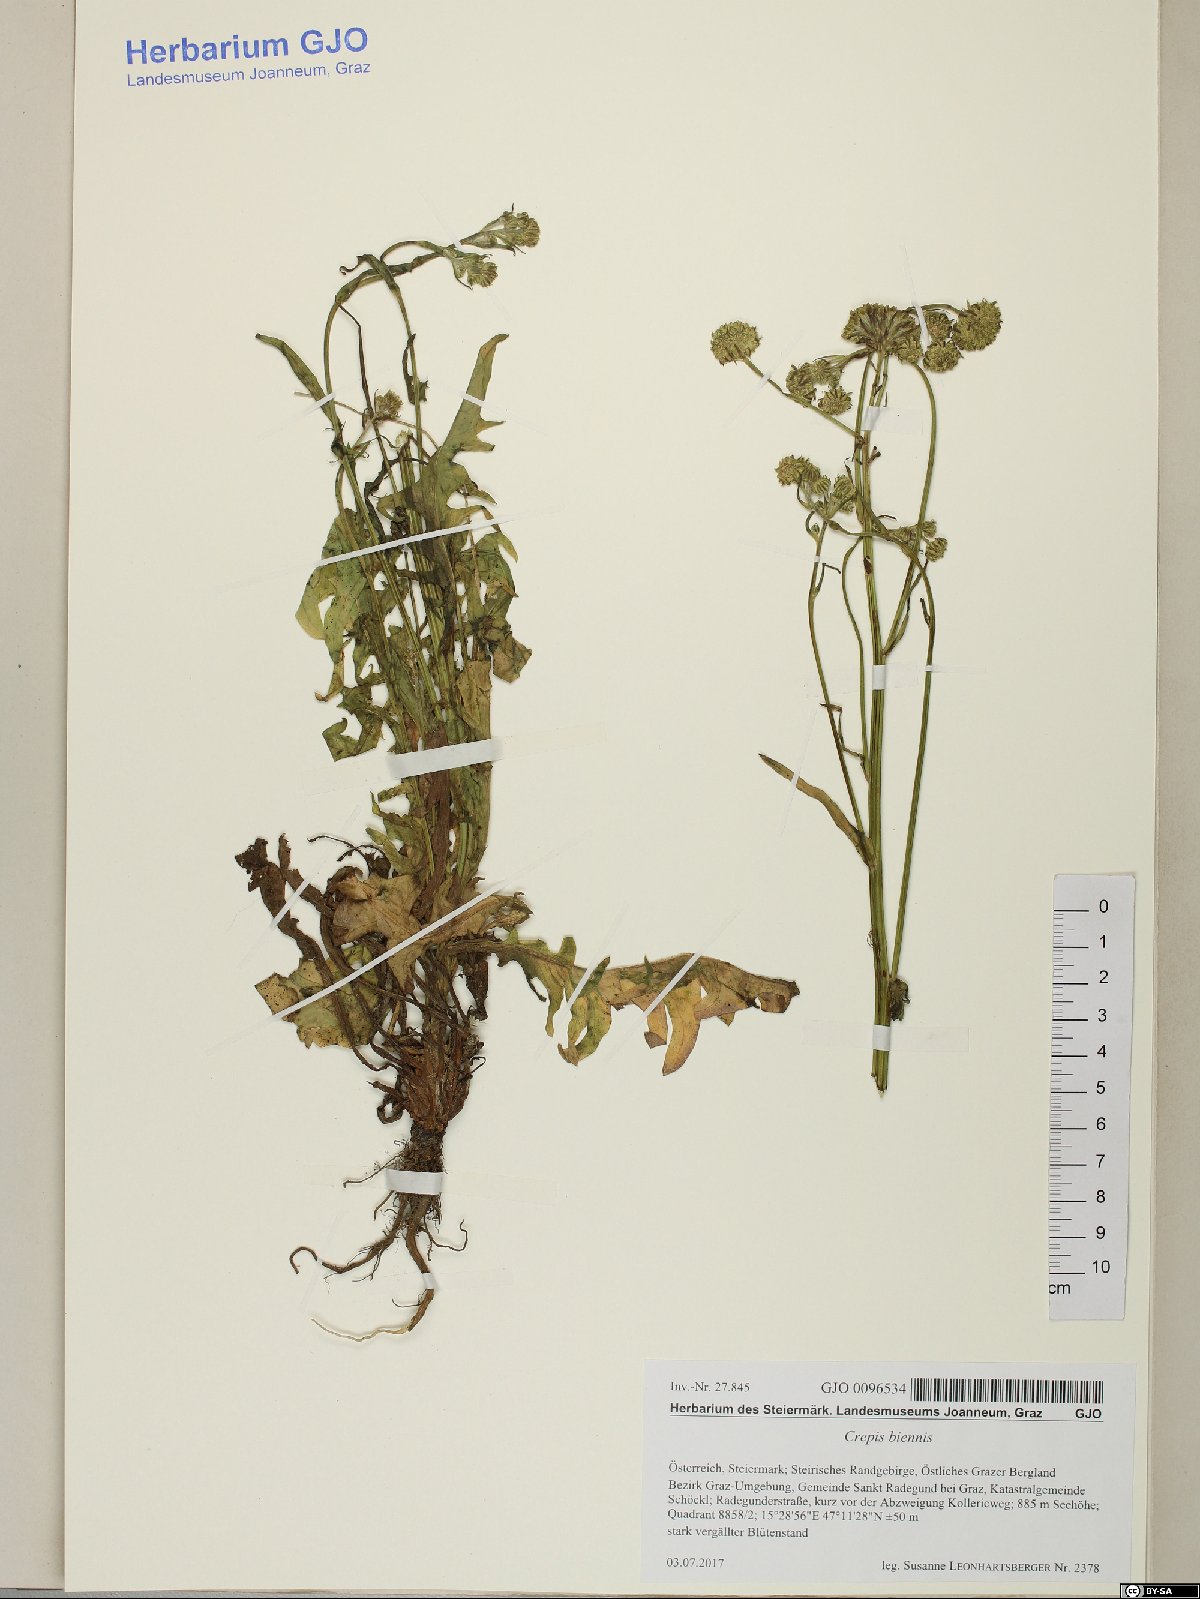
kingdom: Plantae
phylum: Tracheophyta
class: Magnoliopsida
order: Asterales
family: Asteraceae
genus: Crepis
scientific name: Crepis biennis
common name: Rough hawk's-beard
